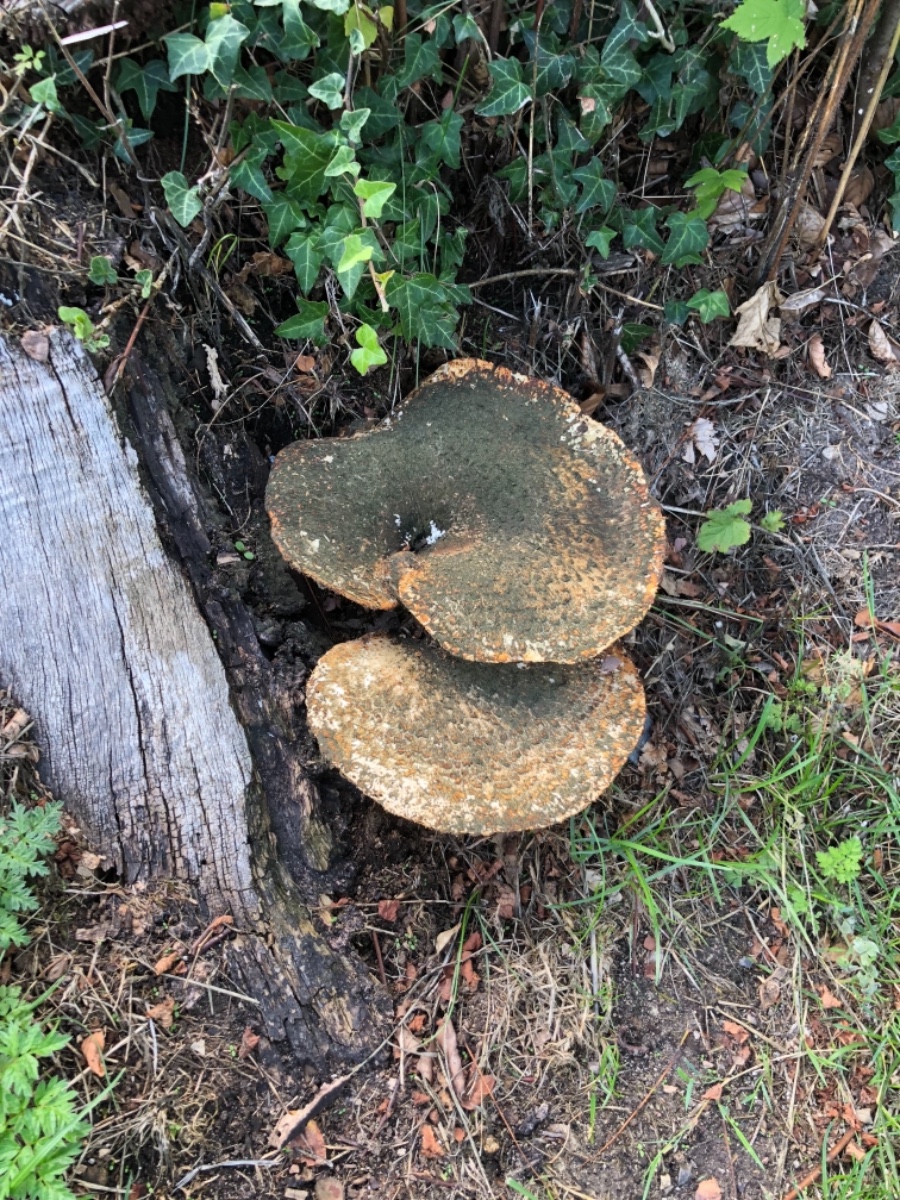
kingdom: Fungi
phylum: Basidiomycota
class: Agaricomycetes
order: Polyporales
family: Polyporaceae
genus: Cerioporus
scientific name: Cerioporus squamosus
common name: skællet stilkporesvamp
